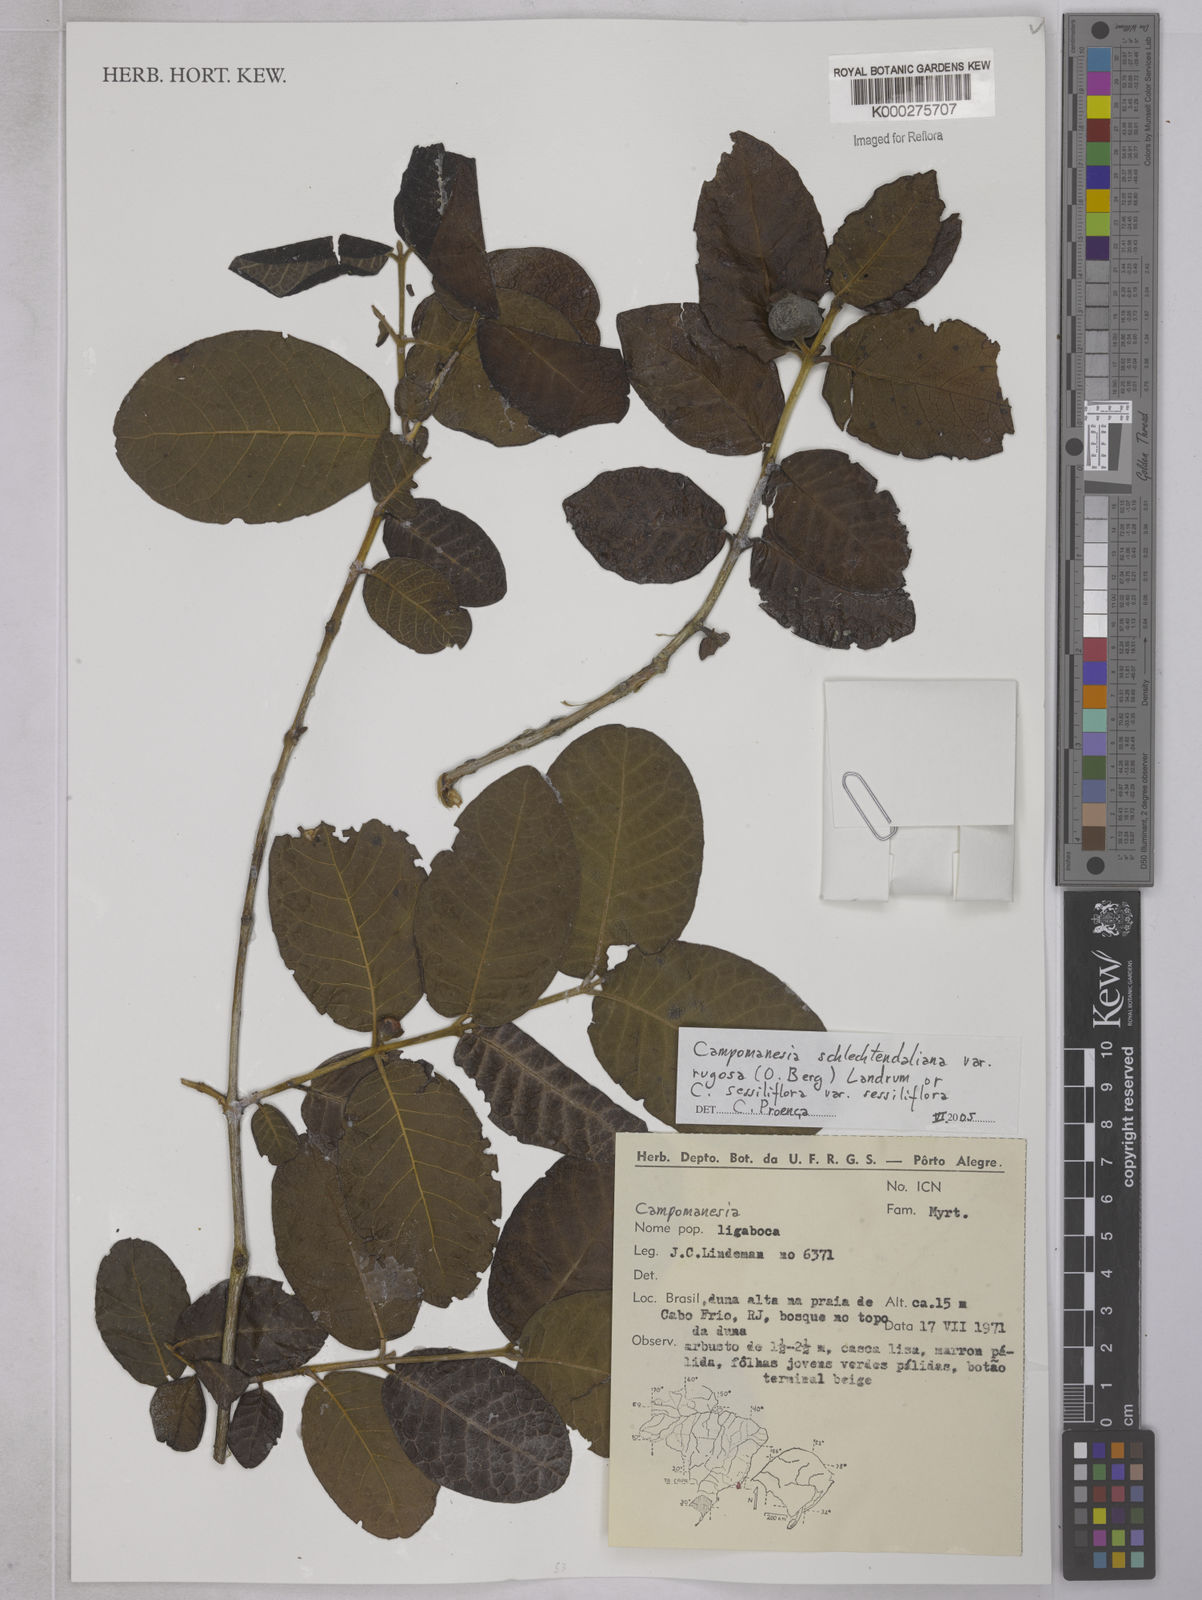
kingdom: Plantae
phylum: Tracheophyta
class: Magnoliopsida
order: Myrtales
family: Myrtaceae
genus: Campomanesia
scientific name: Campomanesia schlechtendaliana
